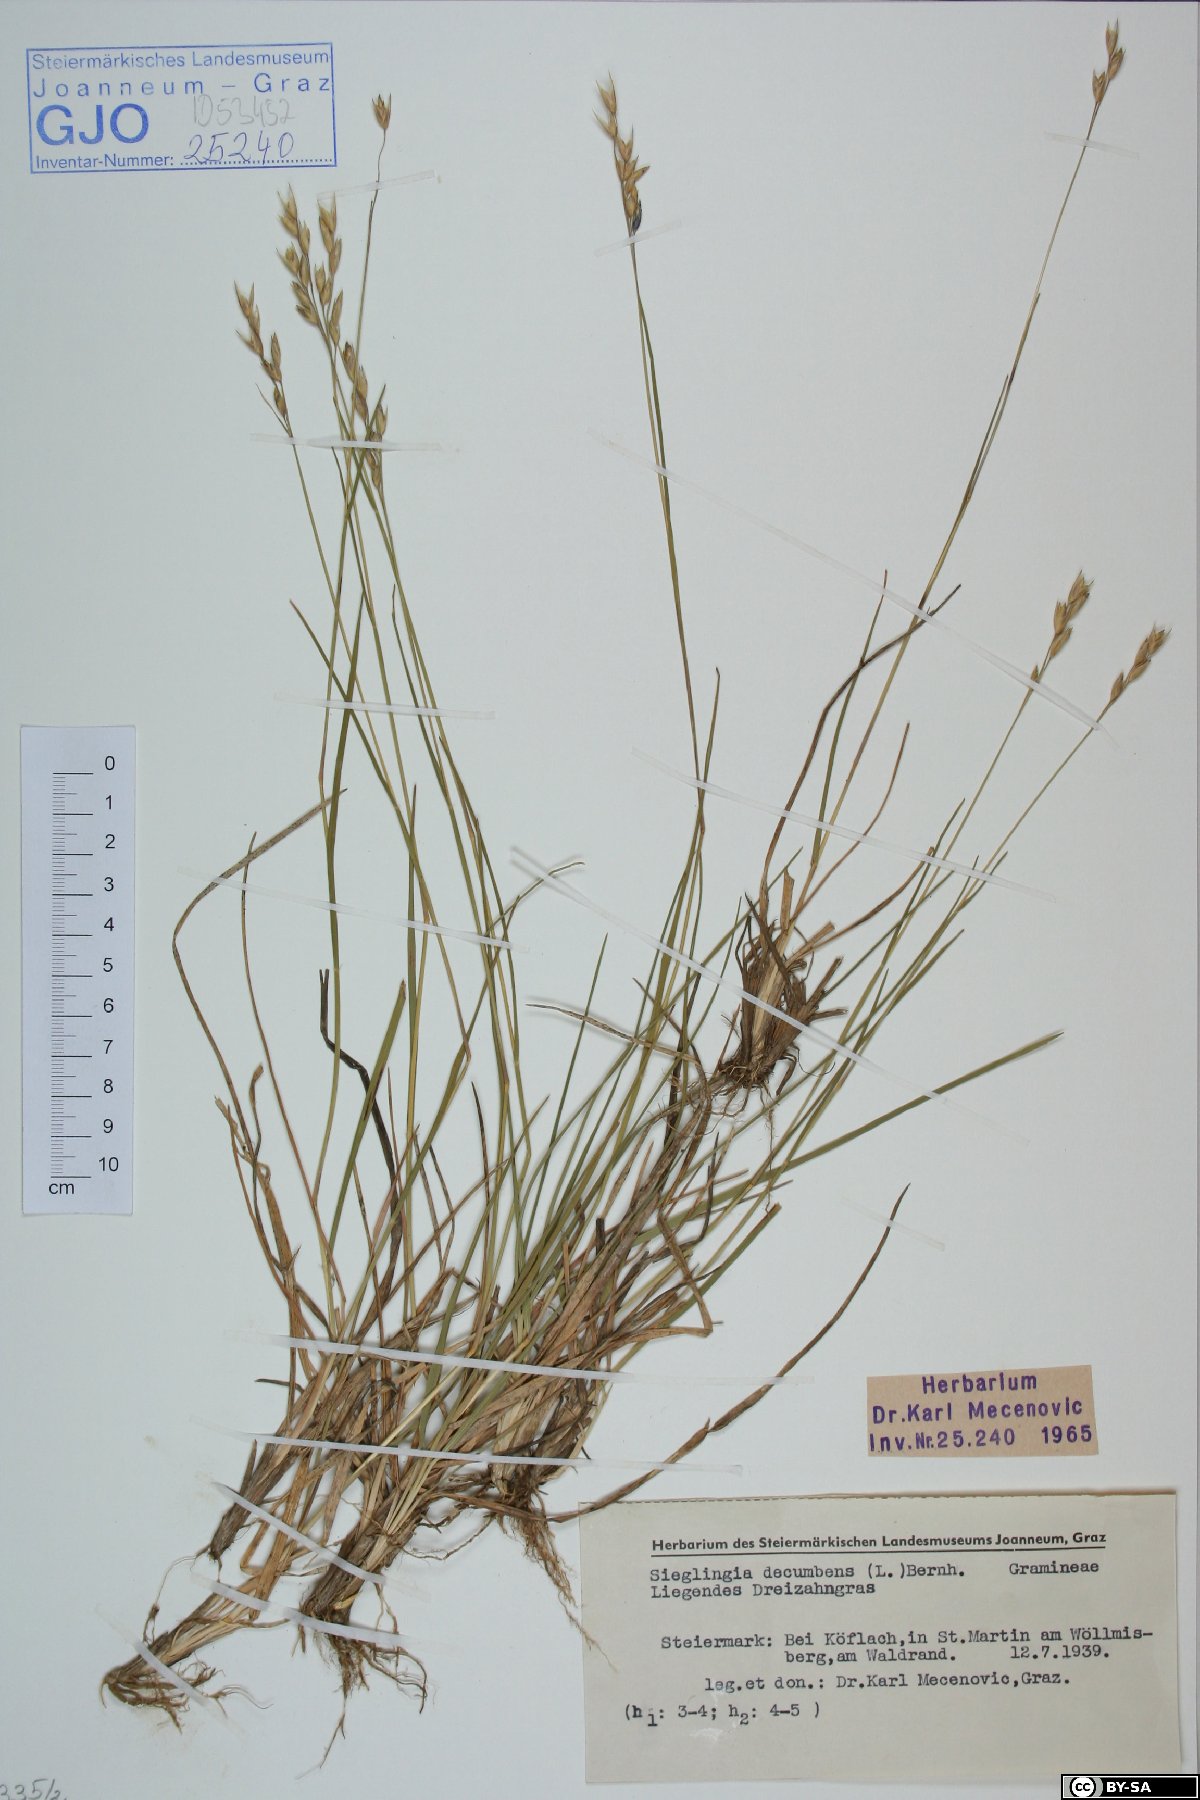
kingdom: Plantae
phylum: Tracheophyta
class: Liliopsida
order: Poales
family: Poaceae
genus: Danthonia
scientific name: Danthonia decumbens
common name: Common heathgrass
